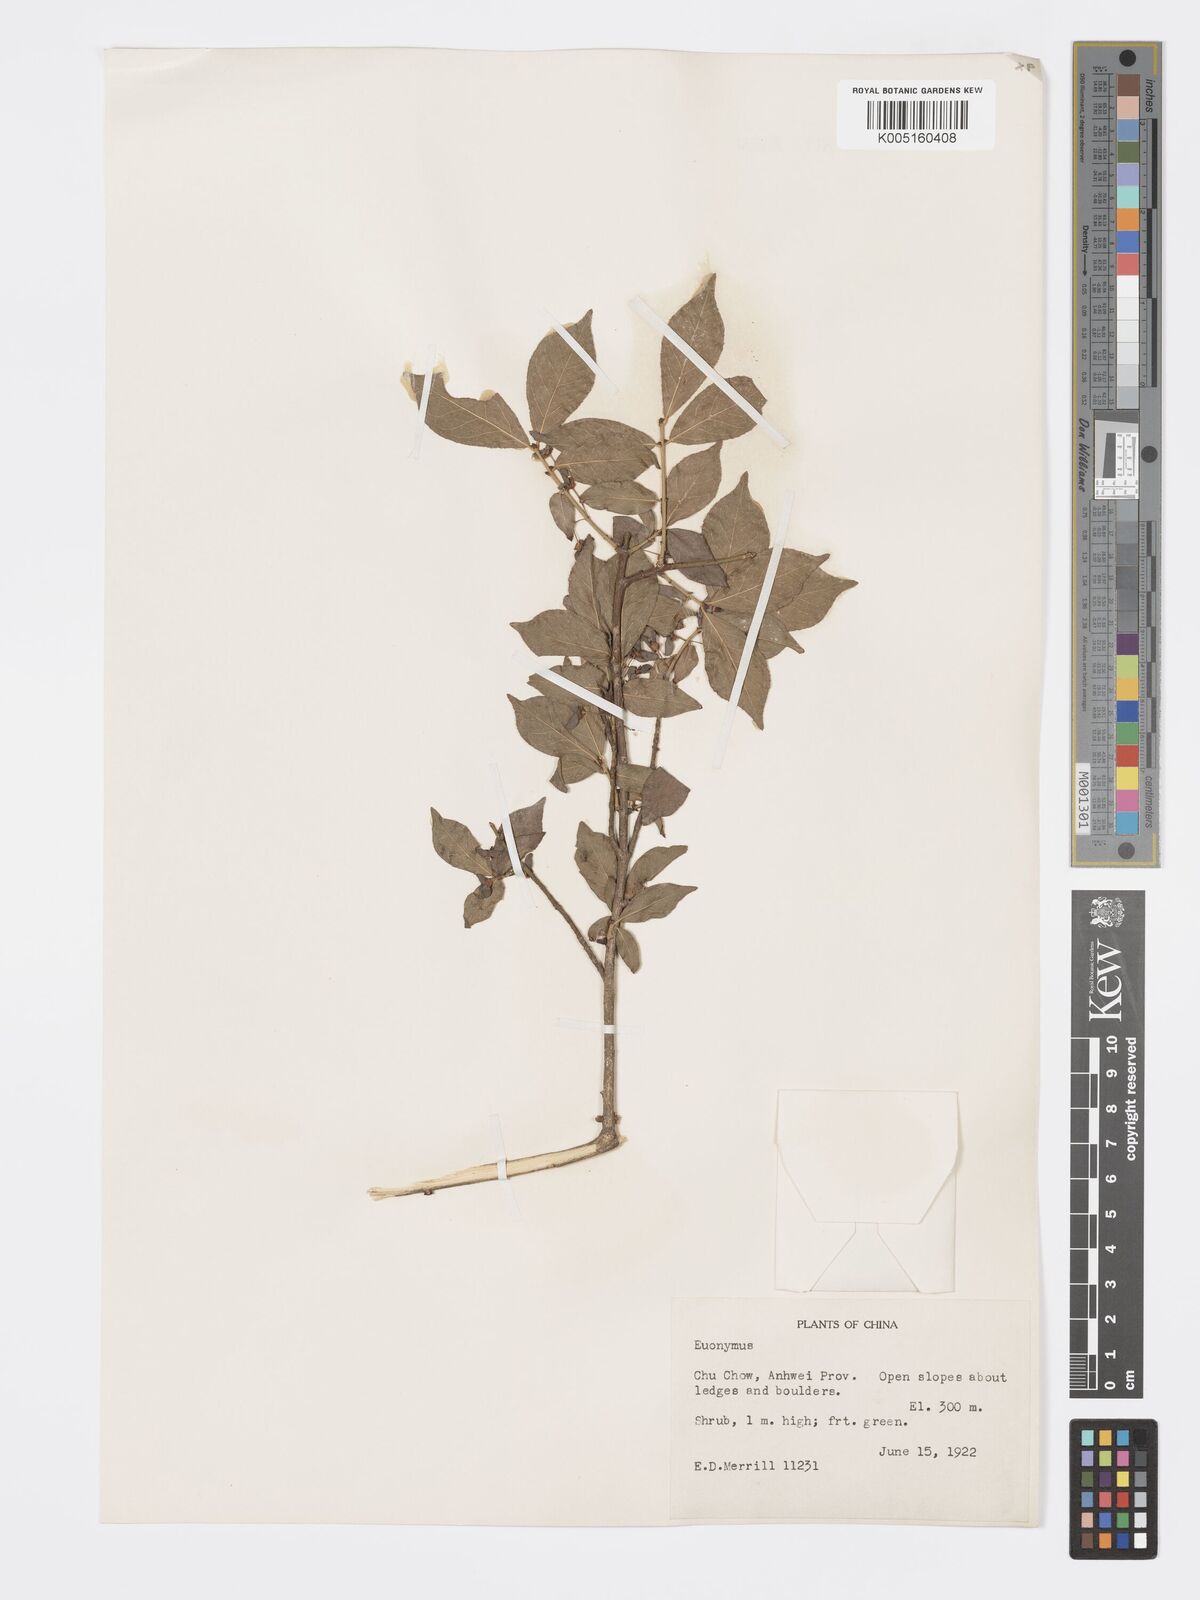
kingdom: Plantae
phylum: Tracheophyta
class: Magnoliopsida
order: Celastrales
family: Celastraceae
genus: Euonymus
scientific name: Euonymus
